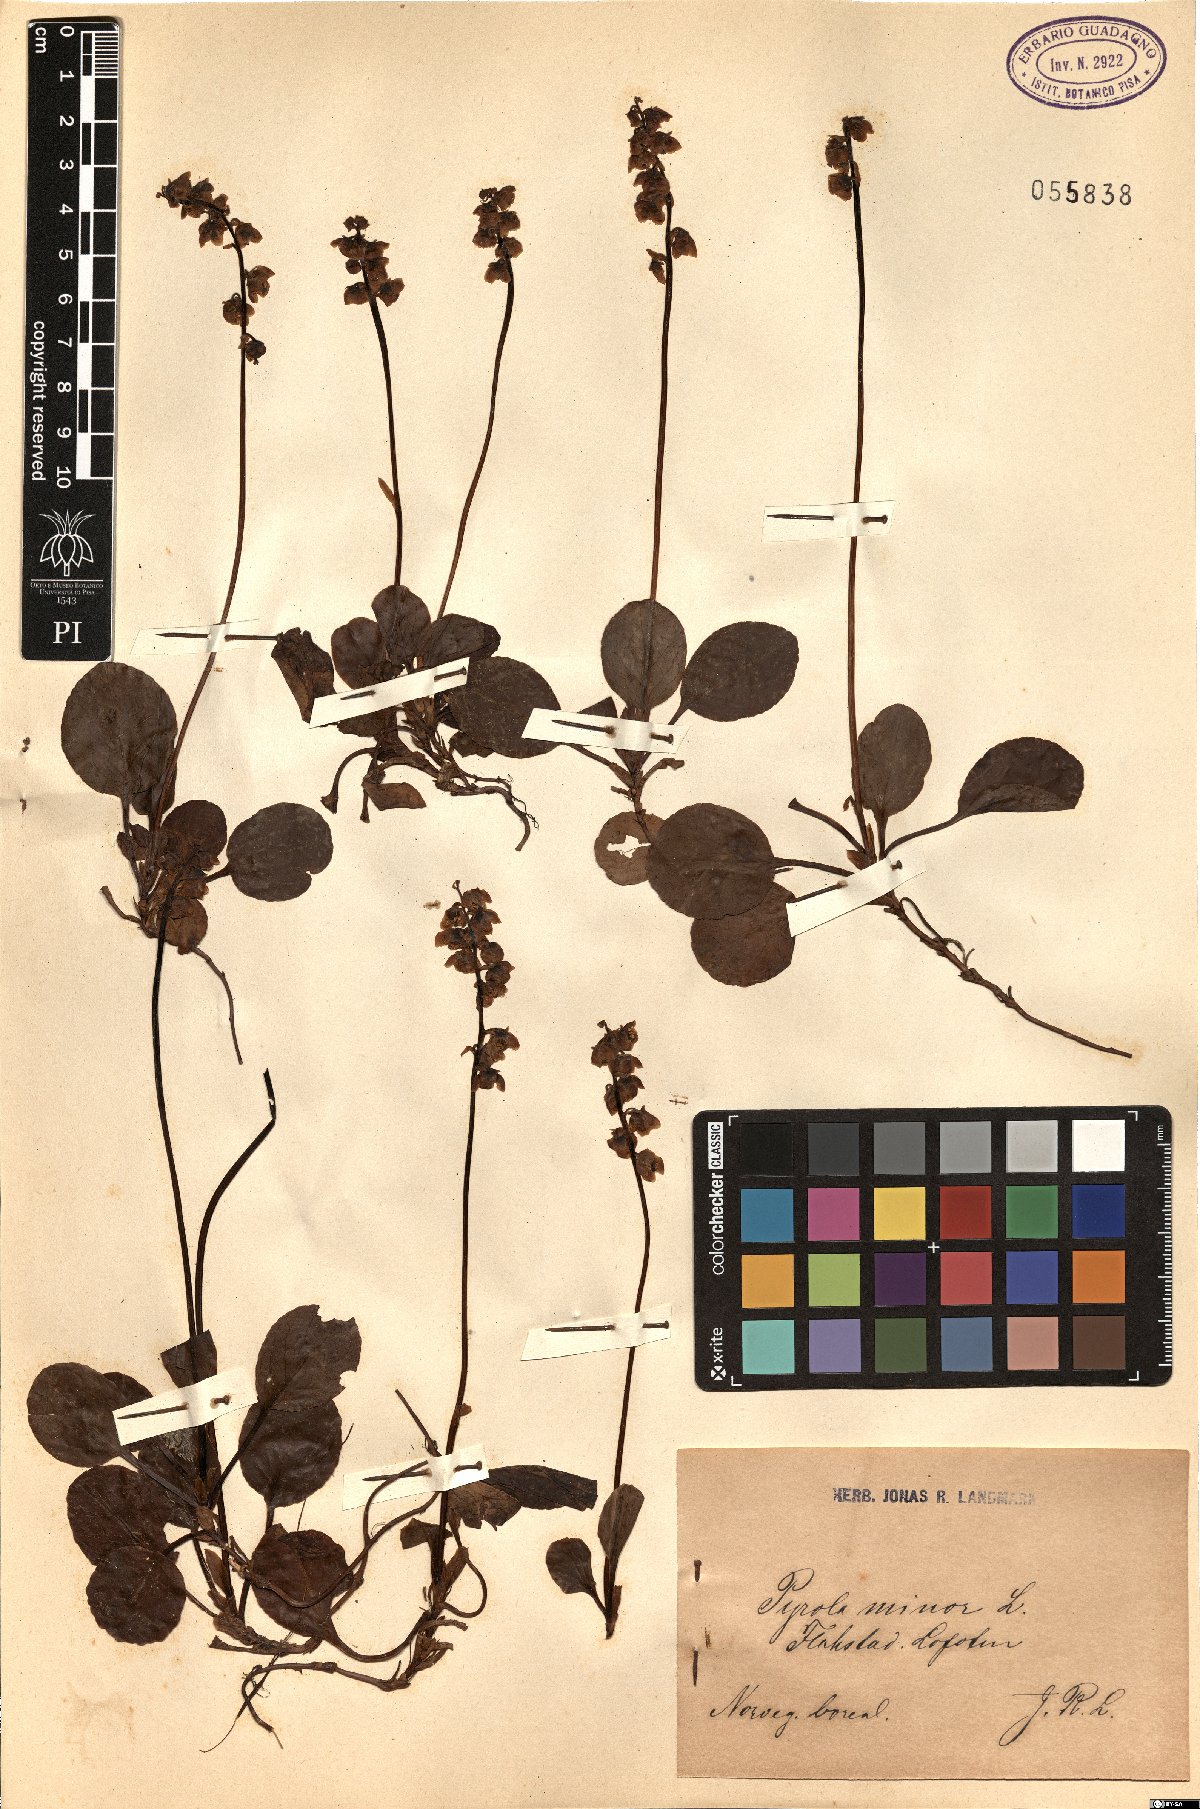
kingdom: Plantae
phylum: Tracheophyta
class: Magnoliopsida
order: Ericales
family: Ericaceae
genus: Pyrola
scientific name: Pyrola minor
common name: Common wintergreen
